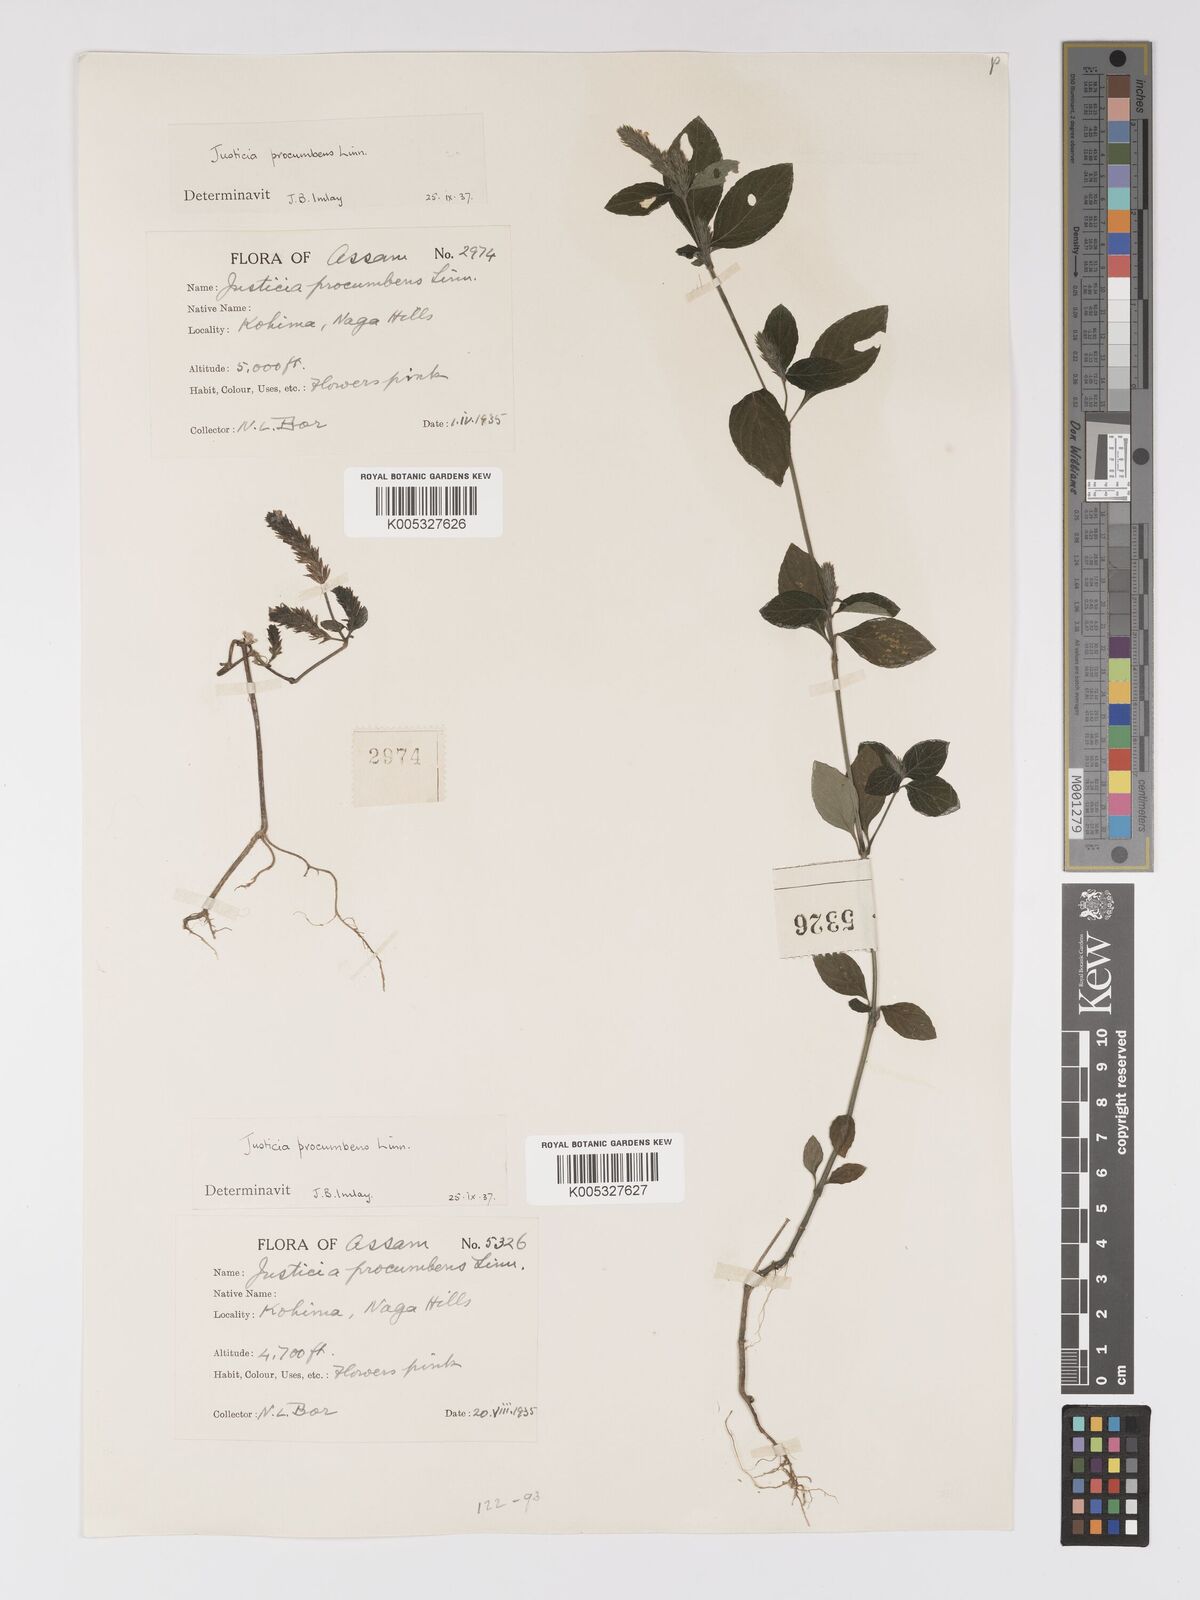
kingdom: Plantae
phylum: Tracheophyta
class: Magnoliopsida
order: Lamiales
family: Acanthaceae
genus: Rostellularia
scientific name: Rostellularia latispica
